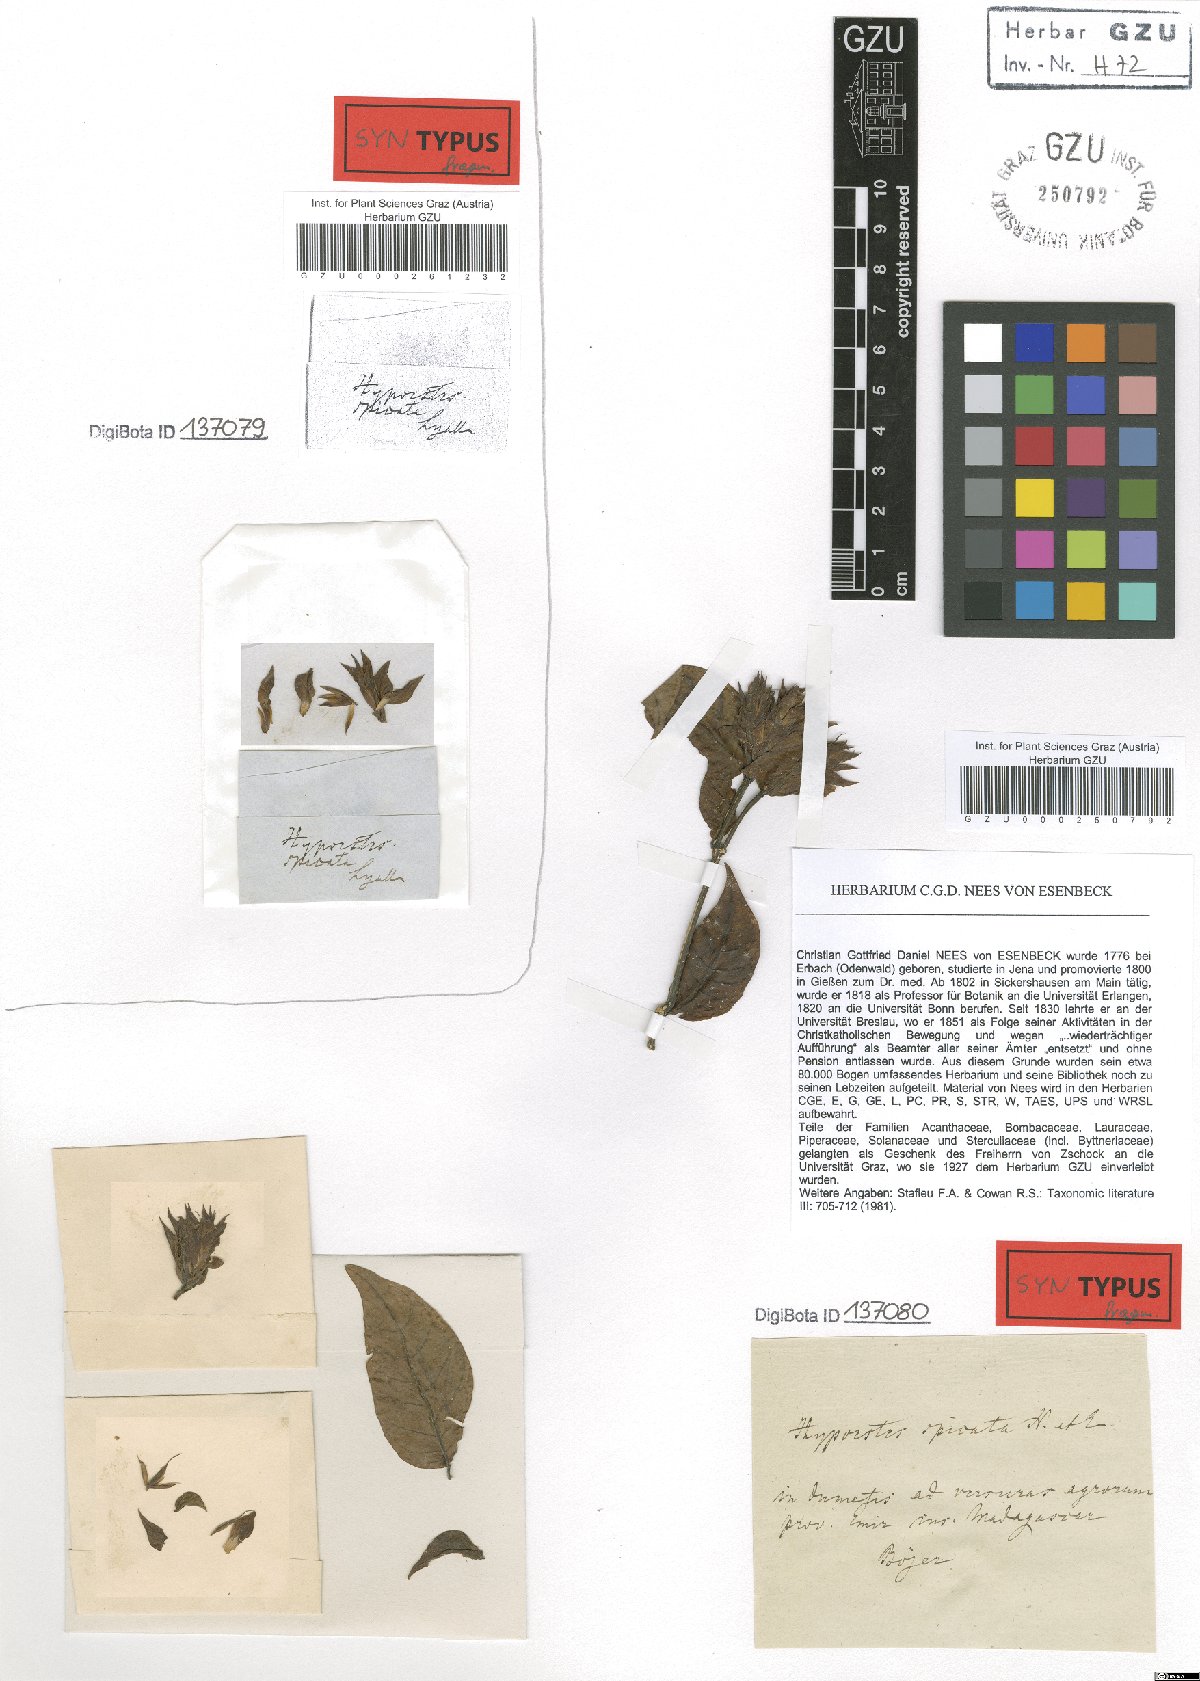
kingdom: Plantae
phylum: Tracheophyta
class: Magnoliopsida
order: Lamiales
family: Acanthaceae
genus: Hypoestes
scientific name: Hypoestes spicata
